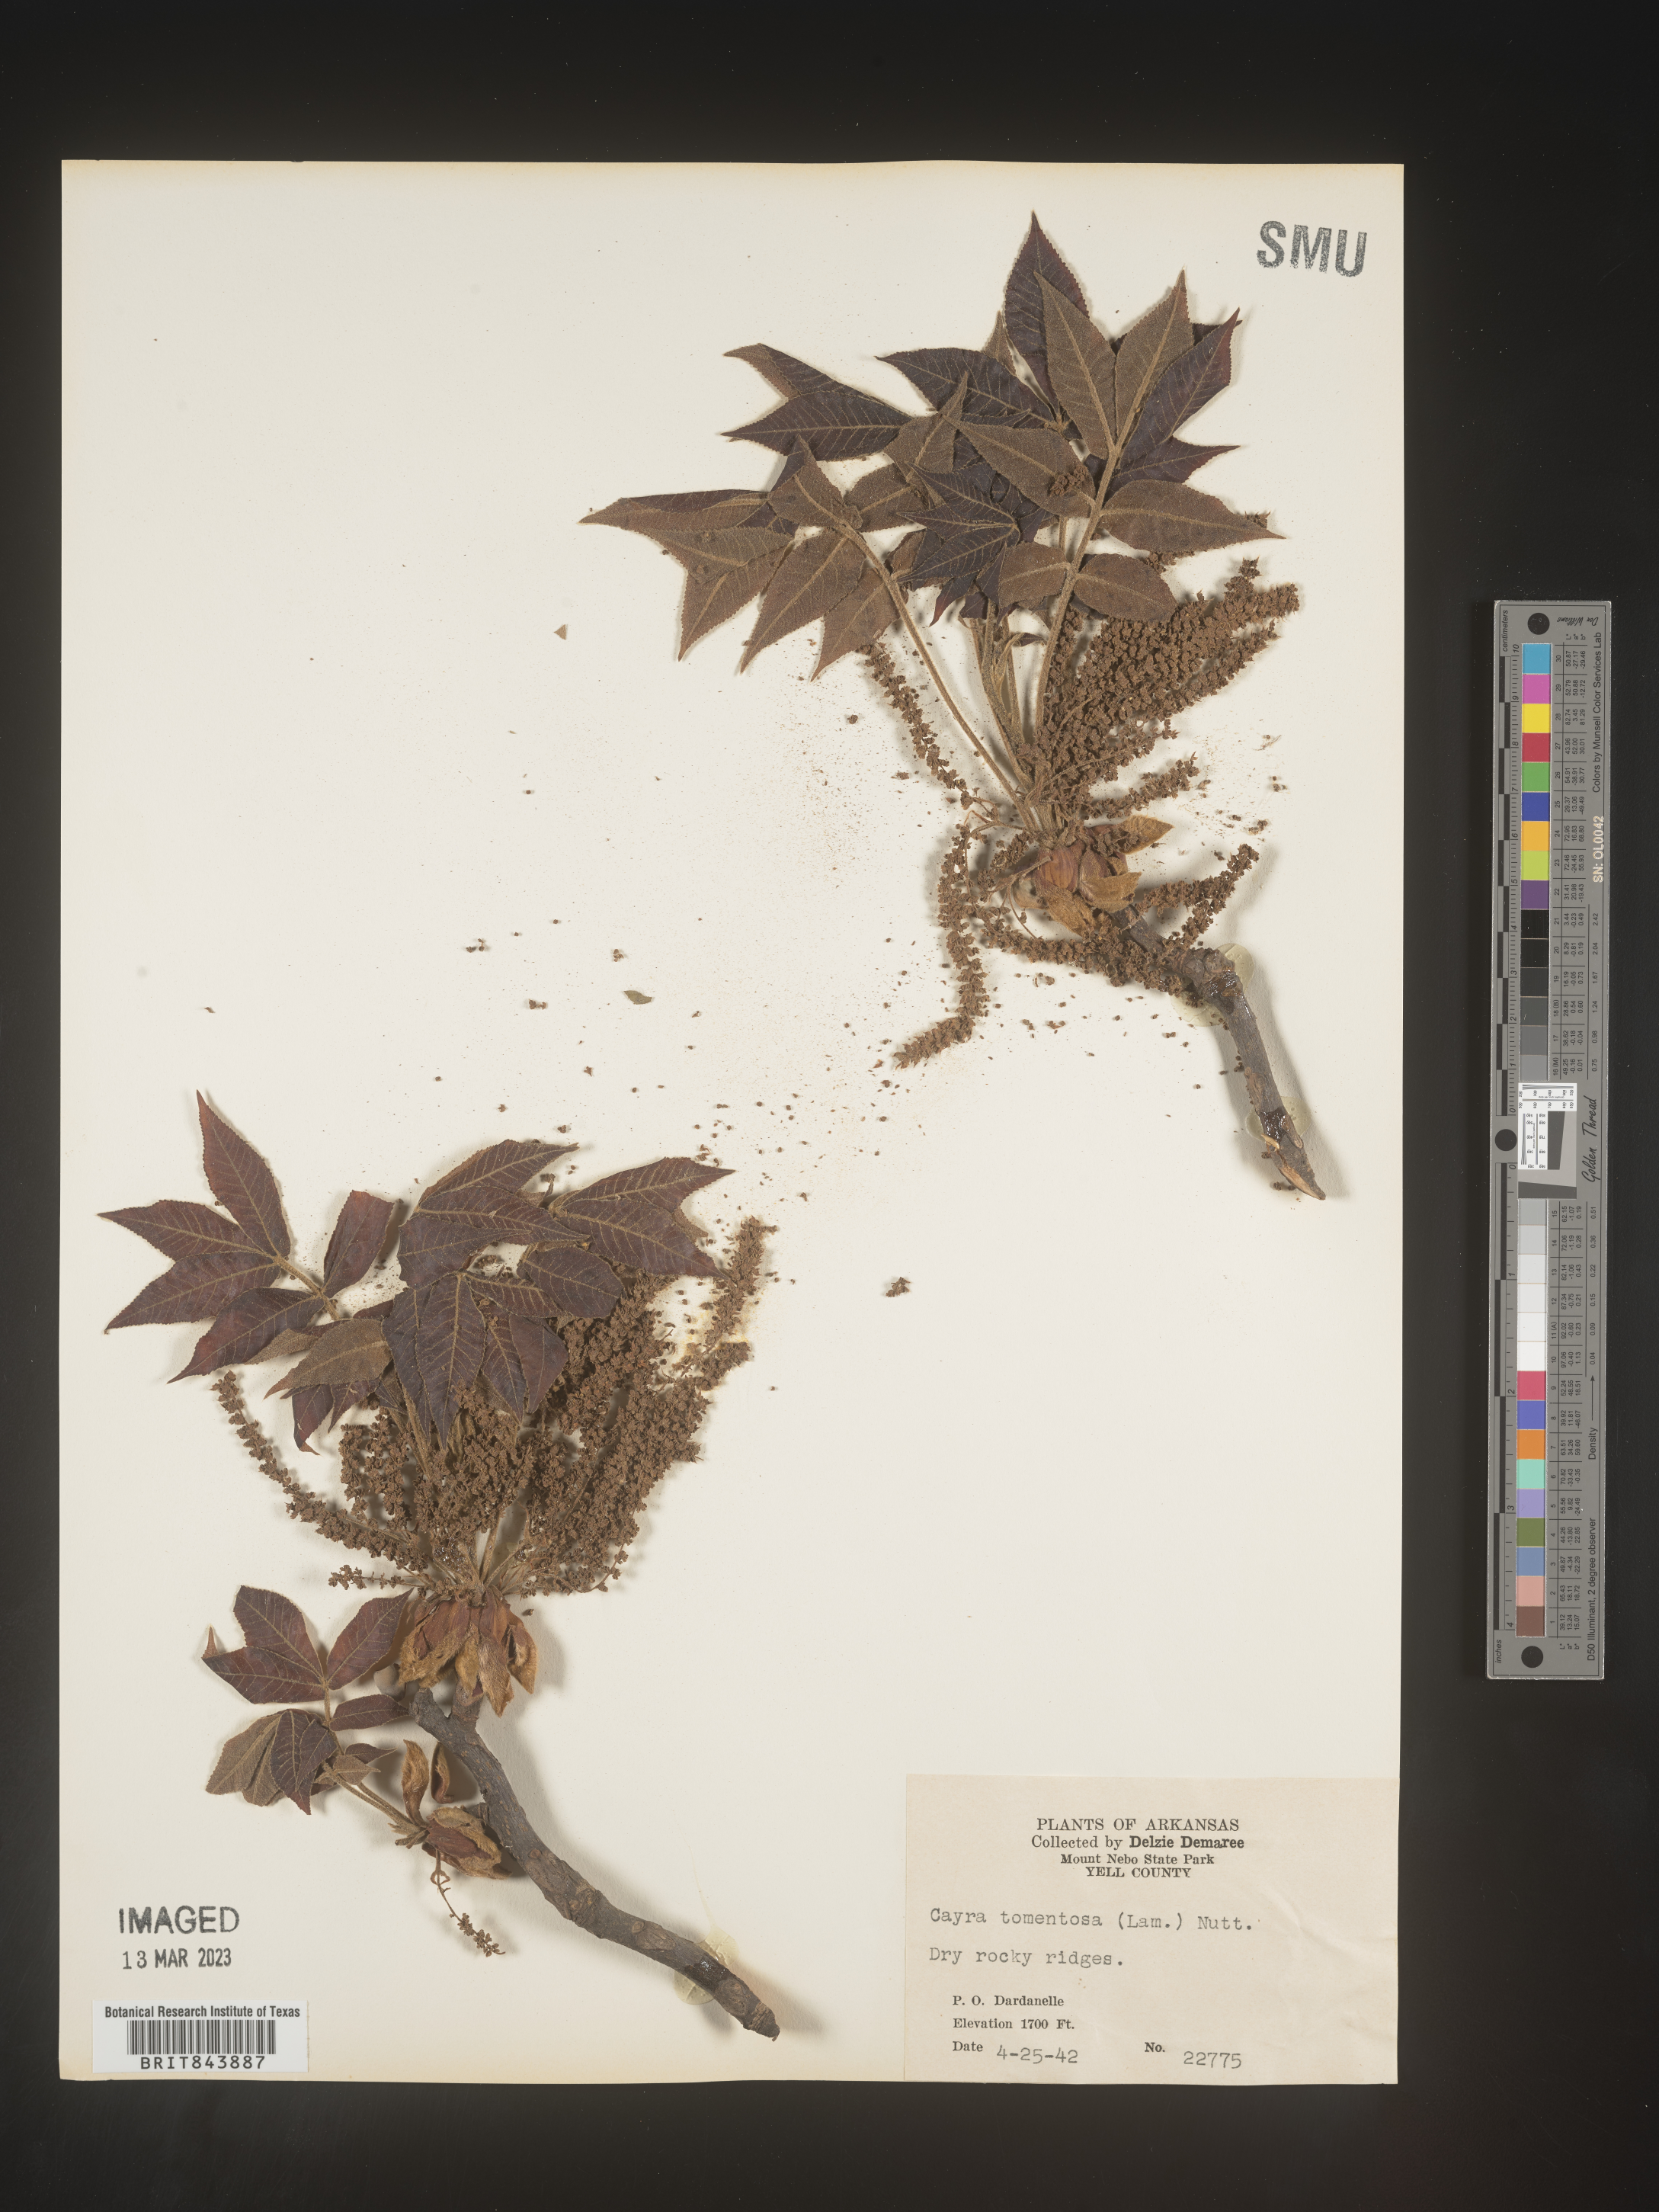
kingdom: Plantae
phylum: Tracheophyta
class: Magnoliopsida
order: Fagales
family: Juglandaceae
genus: Carya
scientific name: Carya alba
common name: Mockernut hickory
